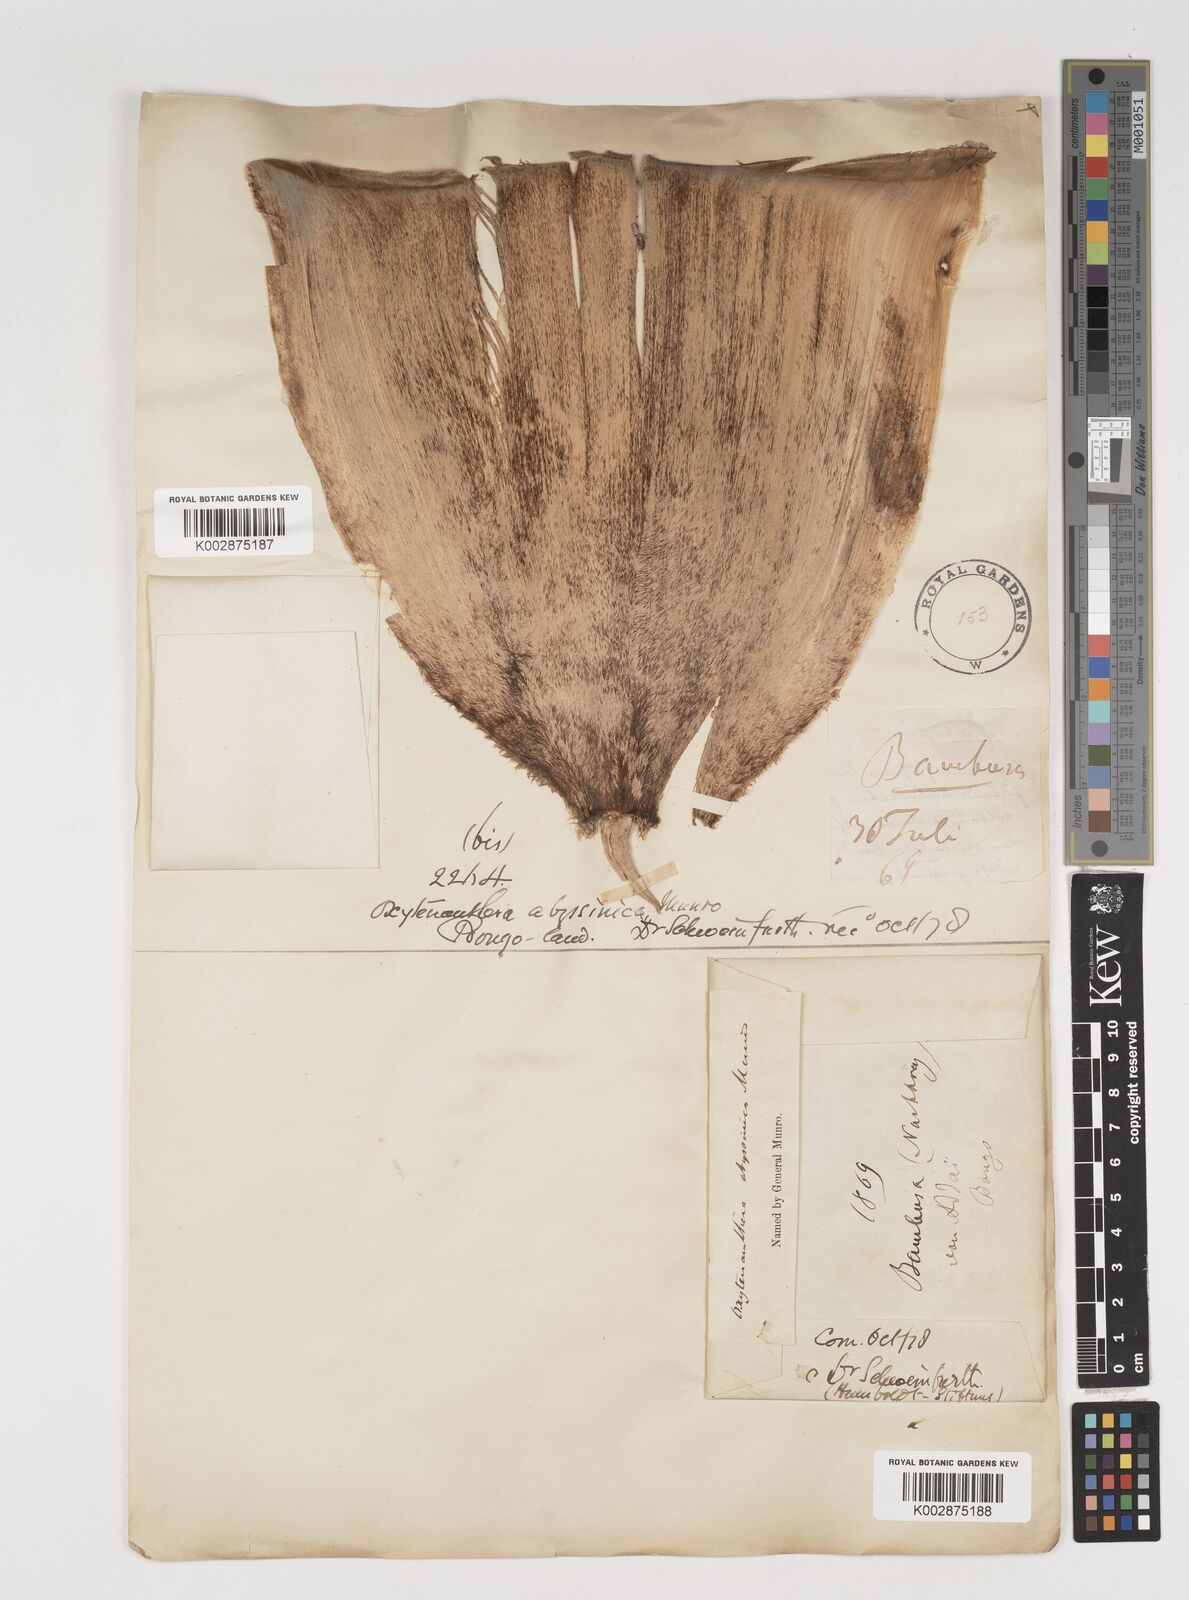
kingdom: Plantae
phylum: Tracheophyta
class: Liliopsida
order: Poales
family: Poaceae
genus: Oxytenanthera
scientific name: Oxytenanthera abyssinica
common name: Wine bamboo
